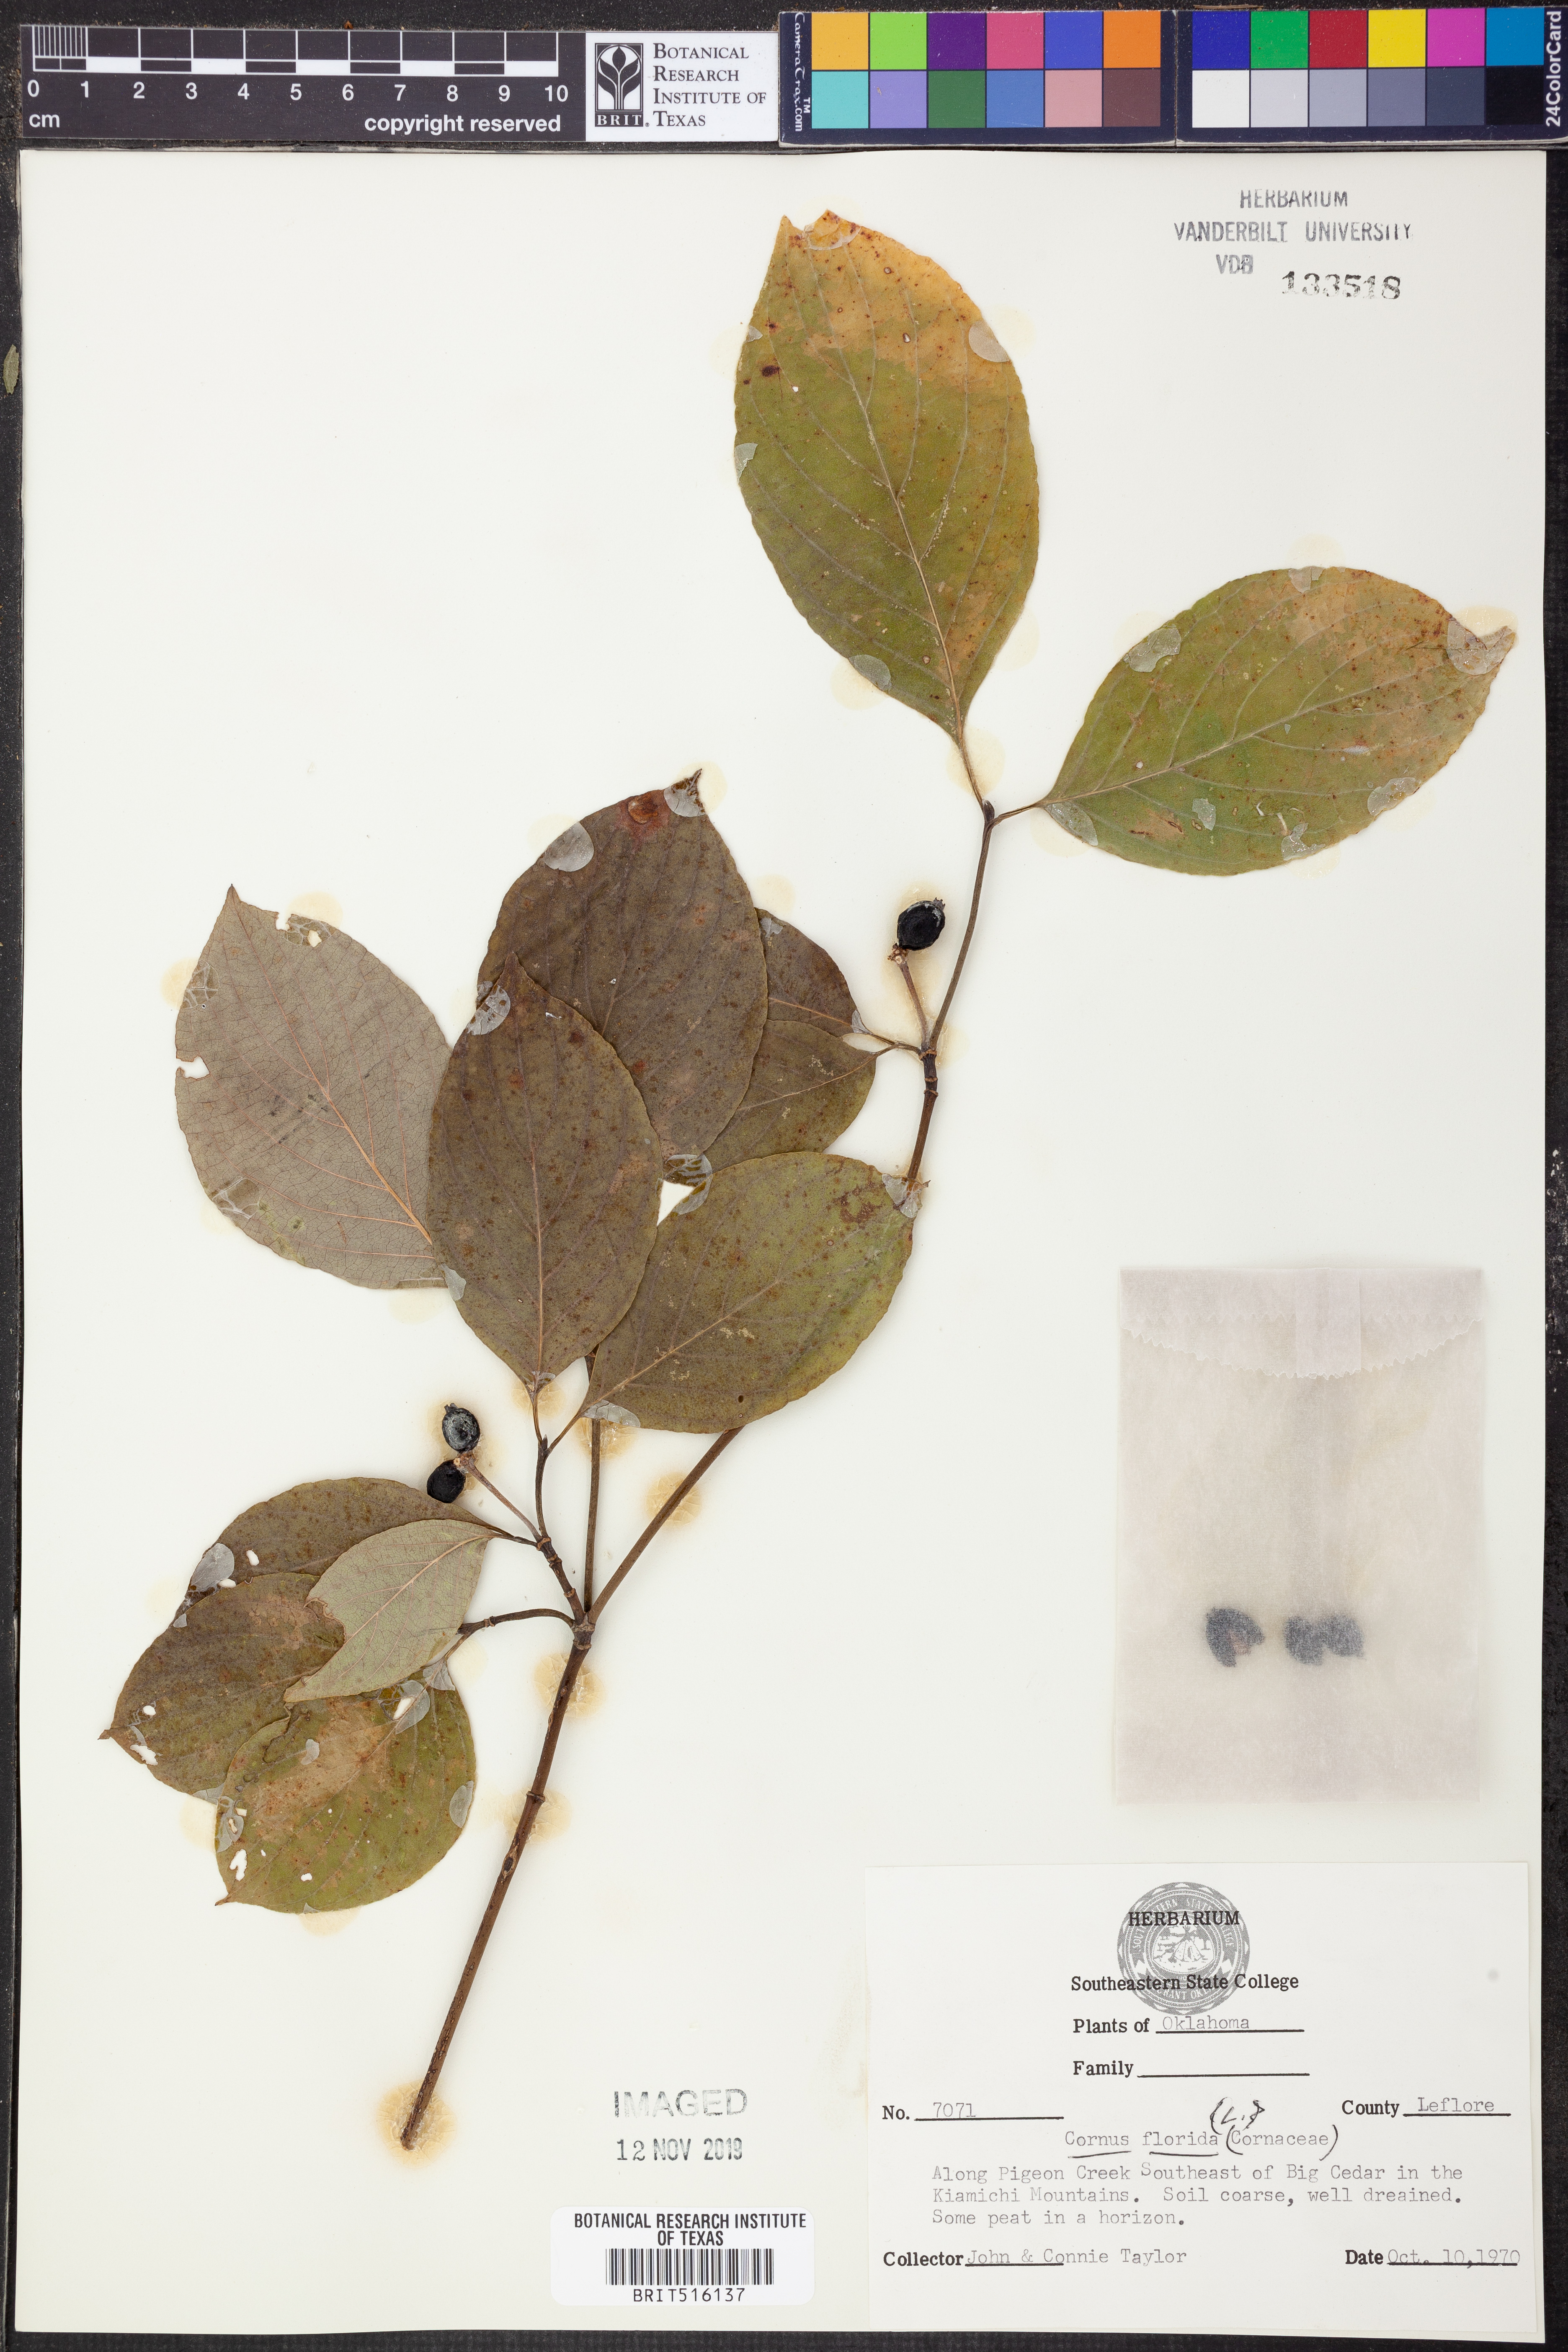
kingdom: Plantae
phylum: Tracheophyta
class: Magnoliopsida
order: Cornales
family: Cornaceae
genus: Cornus
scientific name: Cornus florida
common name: Flowering dogwood
